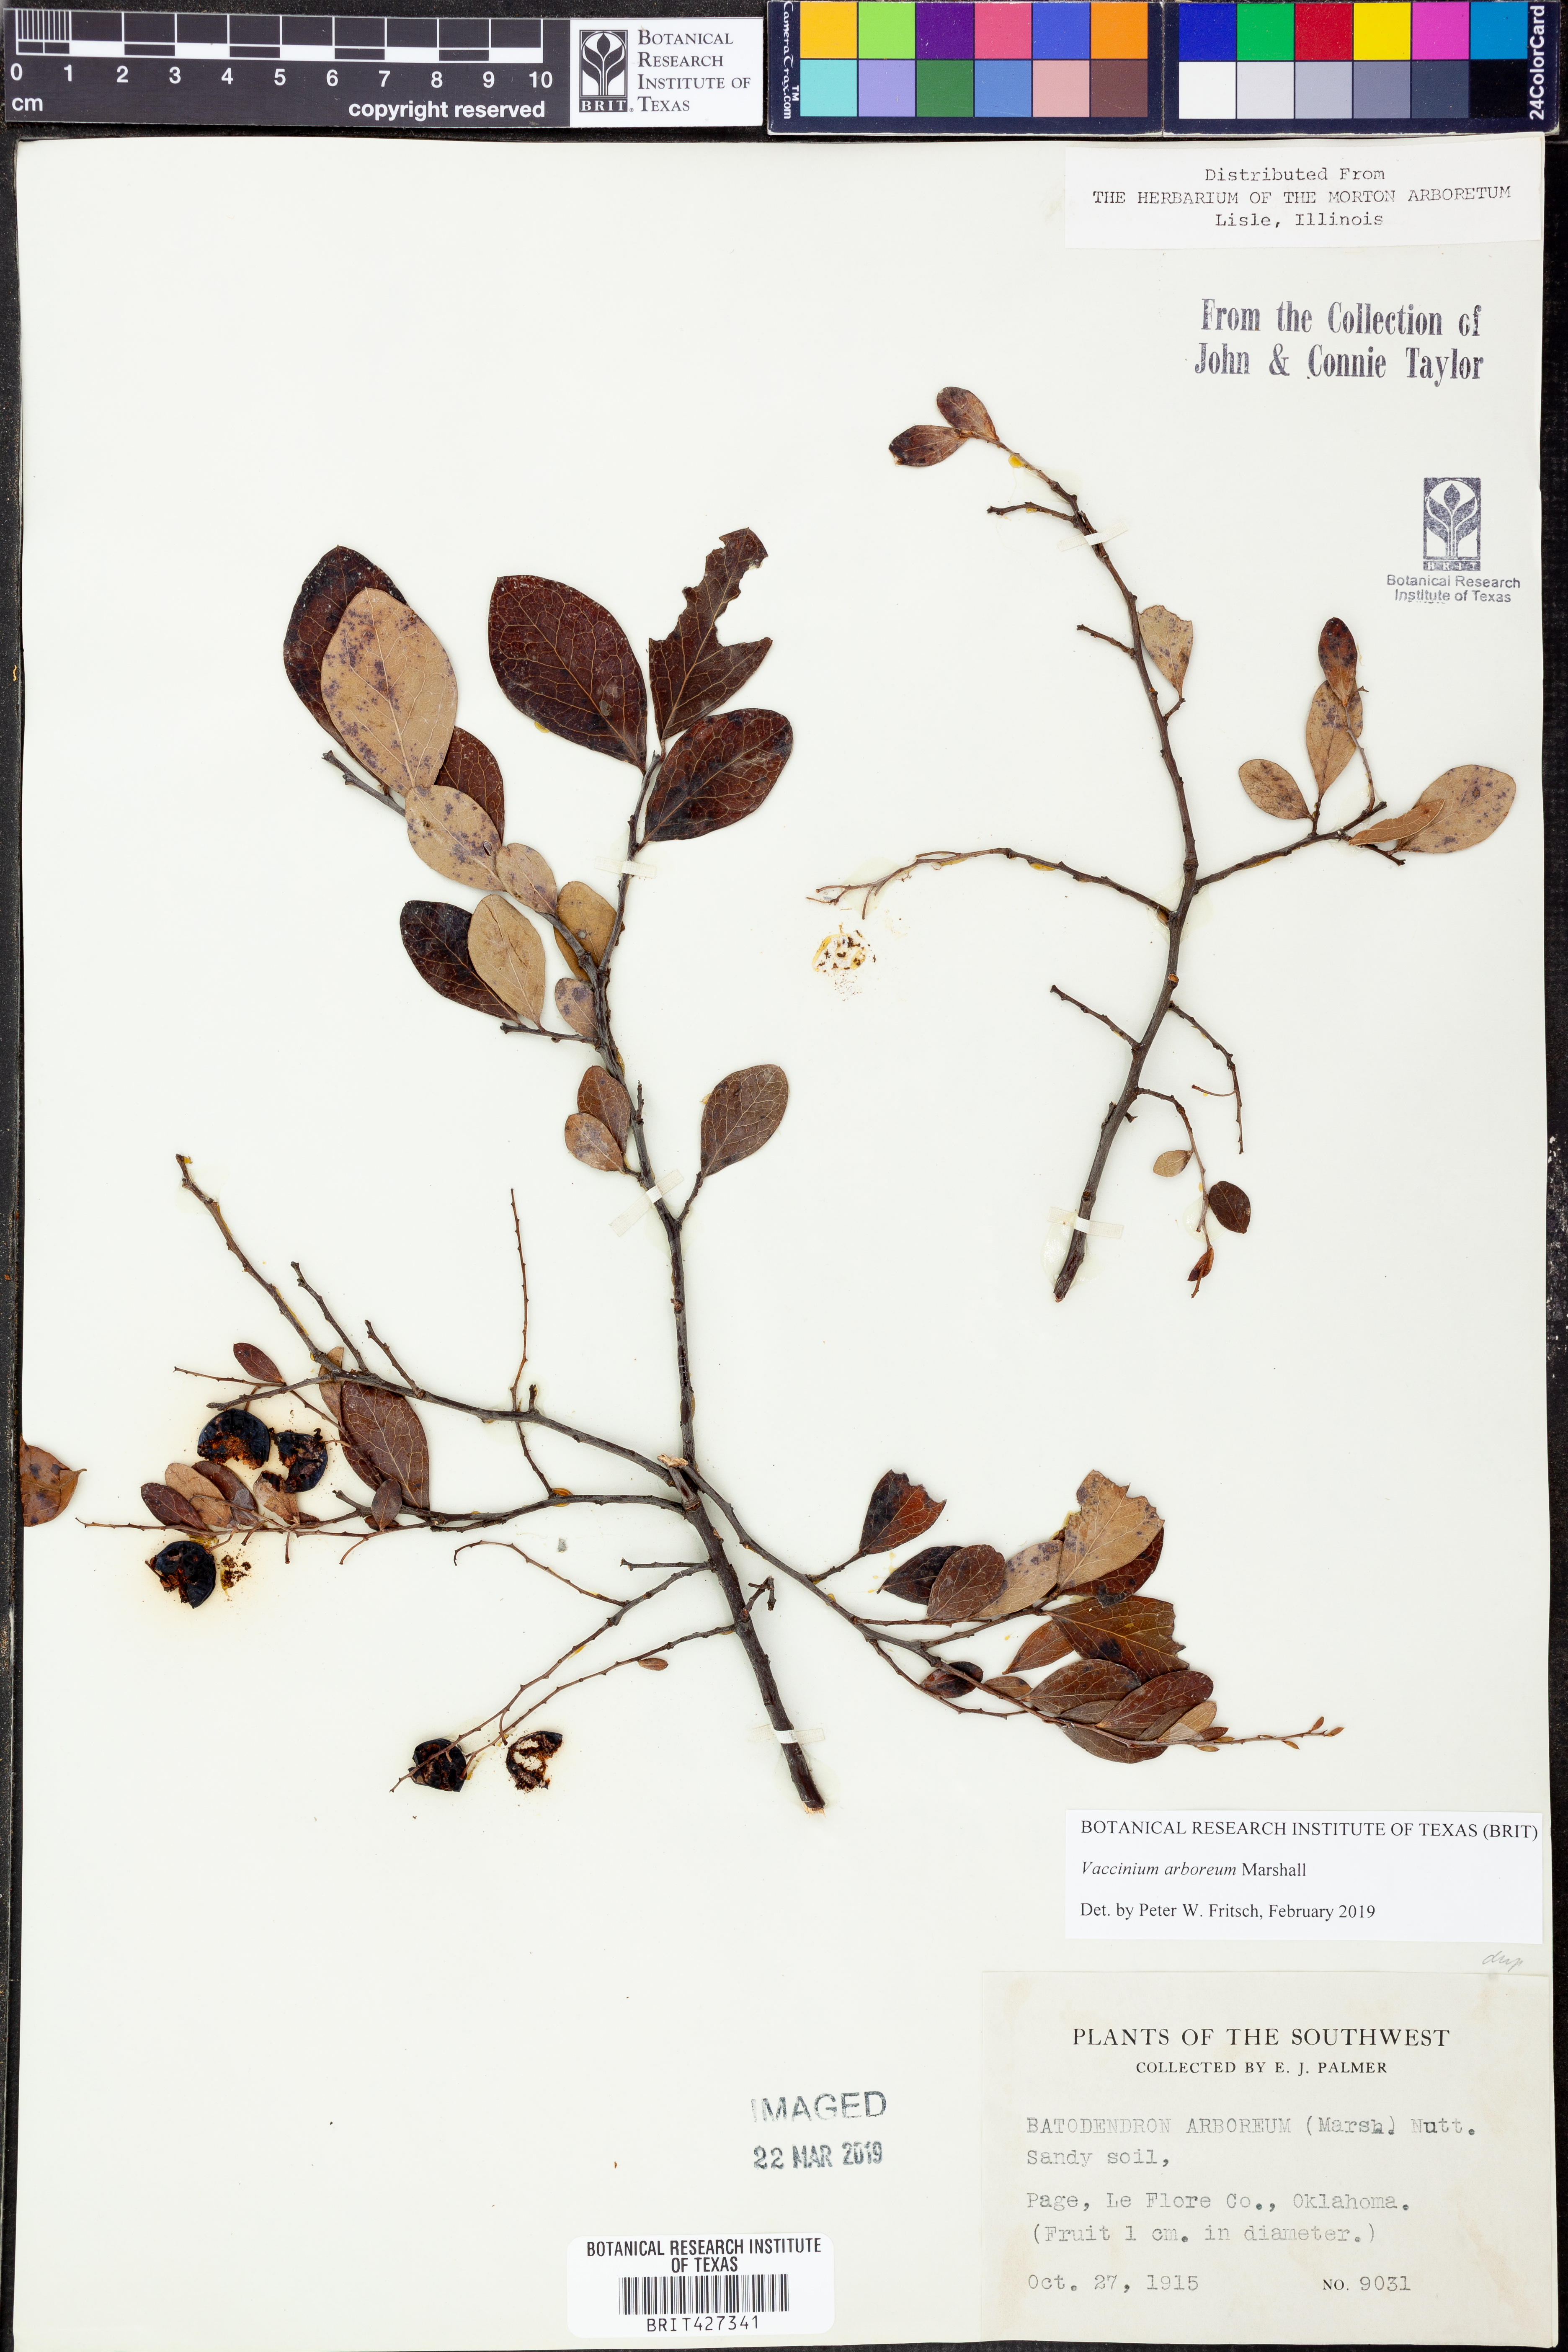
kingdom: Plantae
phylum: Tracheophyta
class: Magnoliopsida
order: Ericales
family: Ericaceae
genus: Vaccinium
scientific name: Vaccinium arboreum
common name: Farkleberry
